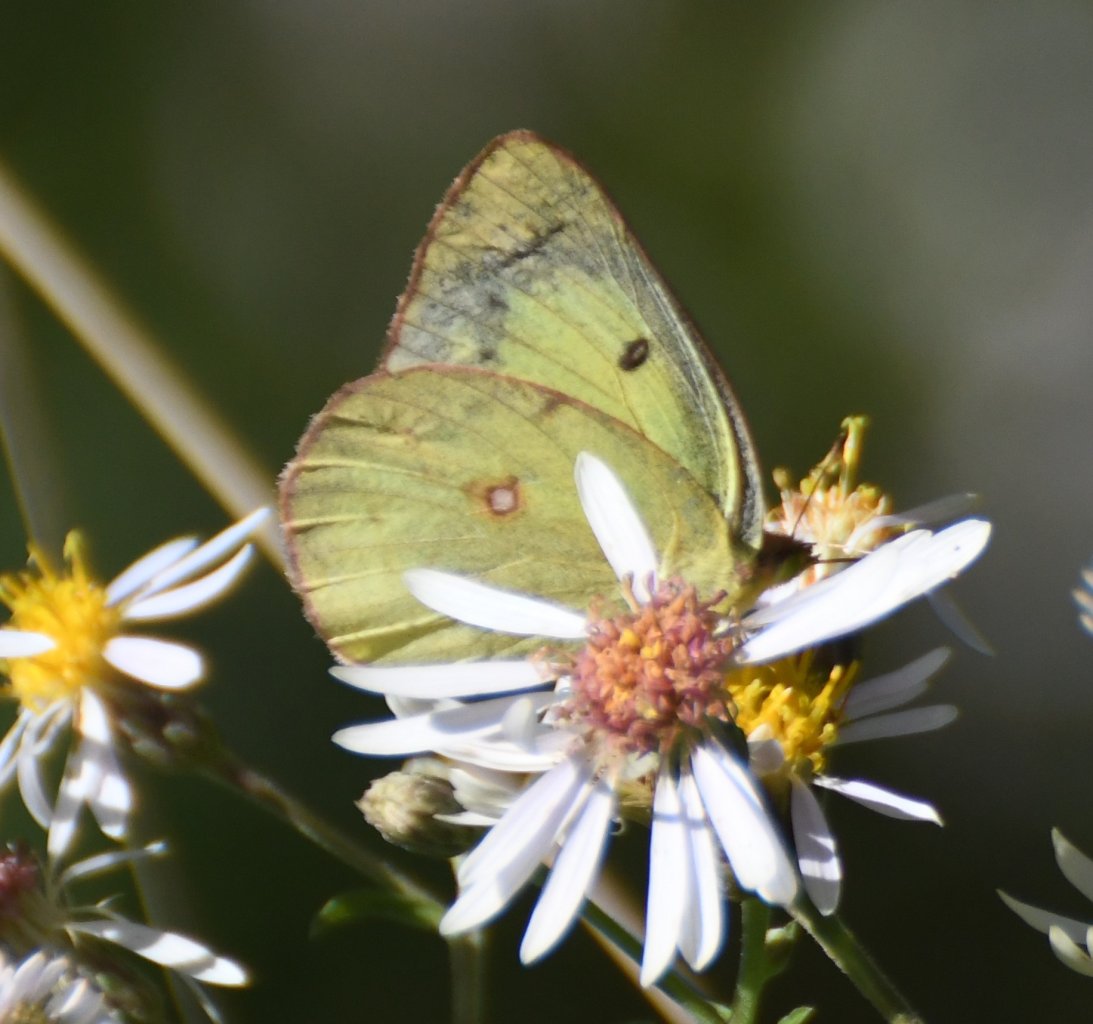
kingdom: Animalia
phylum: Arthropoda
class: Insecta
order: Lepidoptera
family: Pieridae
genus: Colias
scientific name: Colias philodice
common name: Clouded Sulphur
